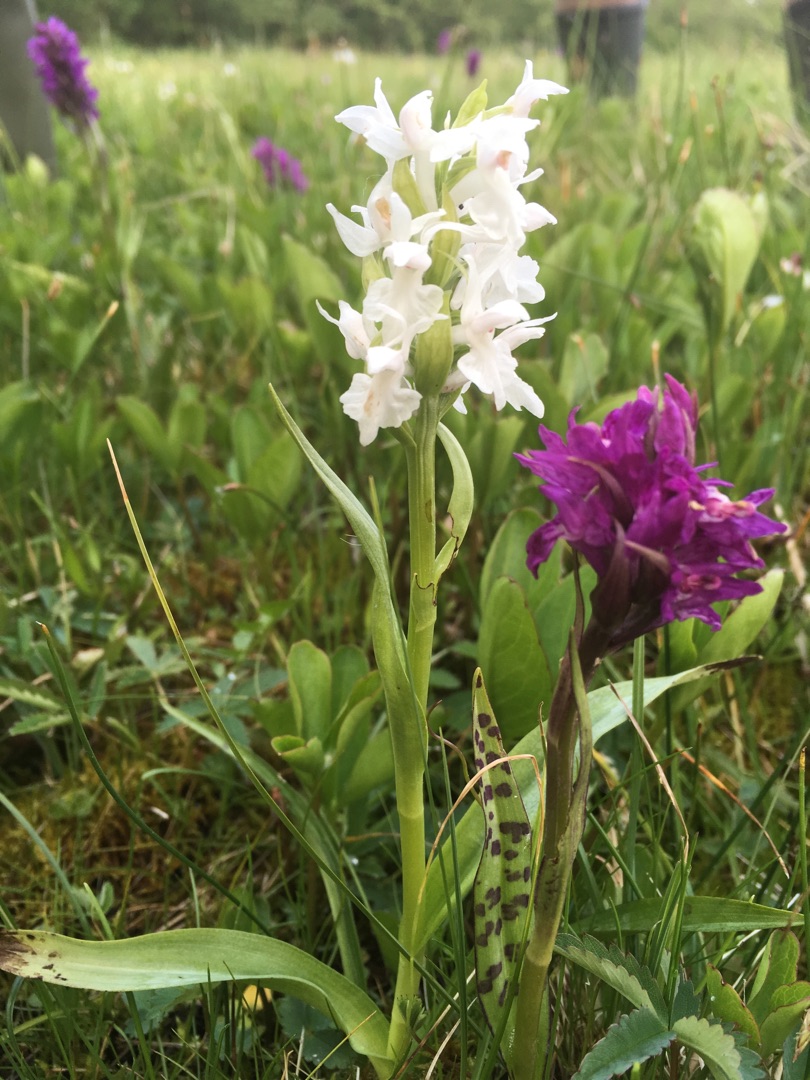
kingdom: Plantae
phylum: Tracheophyta
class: Liliopsida
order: Asparagales
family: Orchidaceae
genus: Dactylorhiza
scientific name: Dactylorhiza majalis
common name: Maj-gøgeurt
